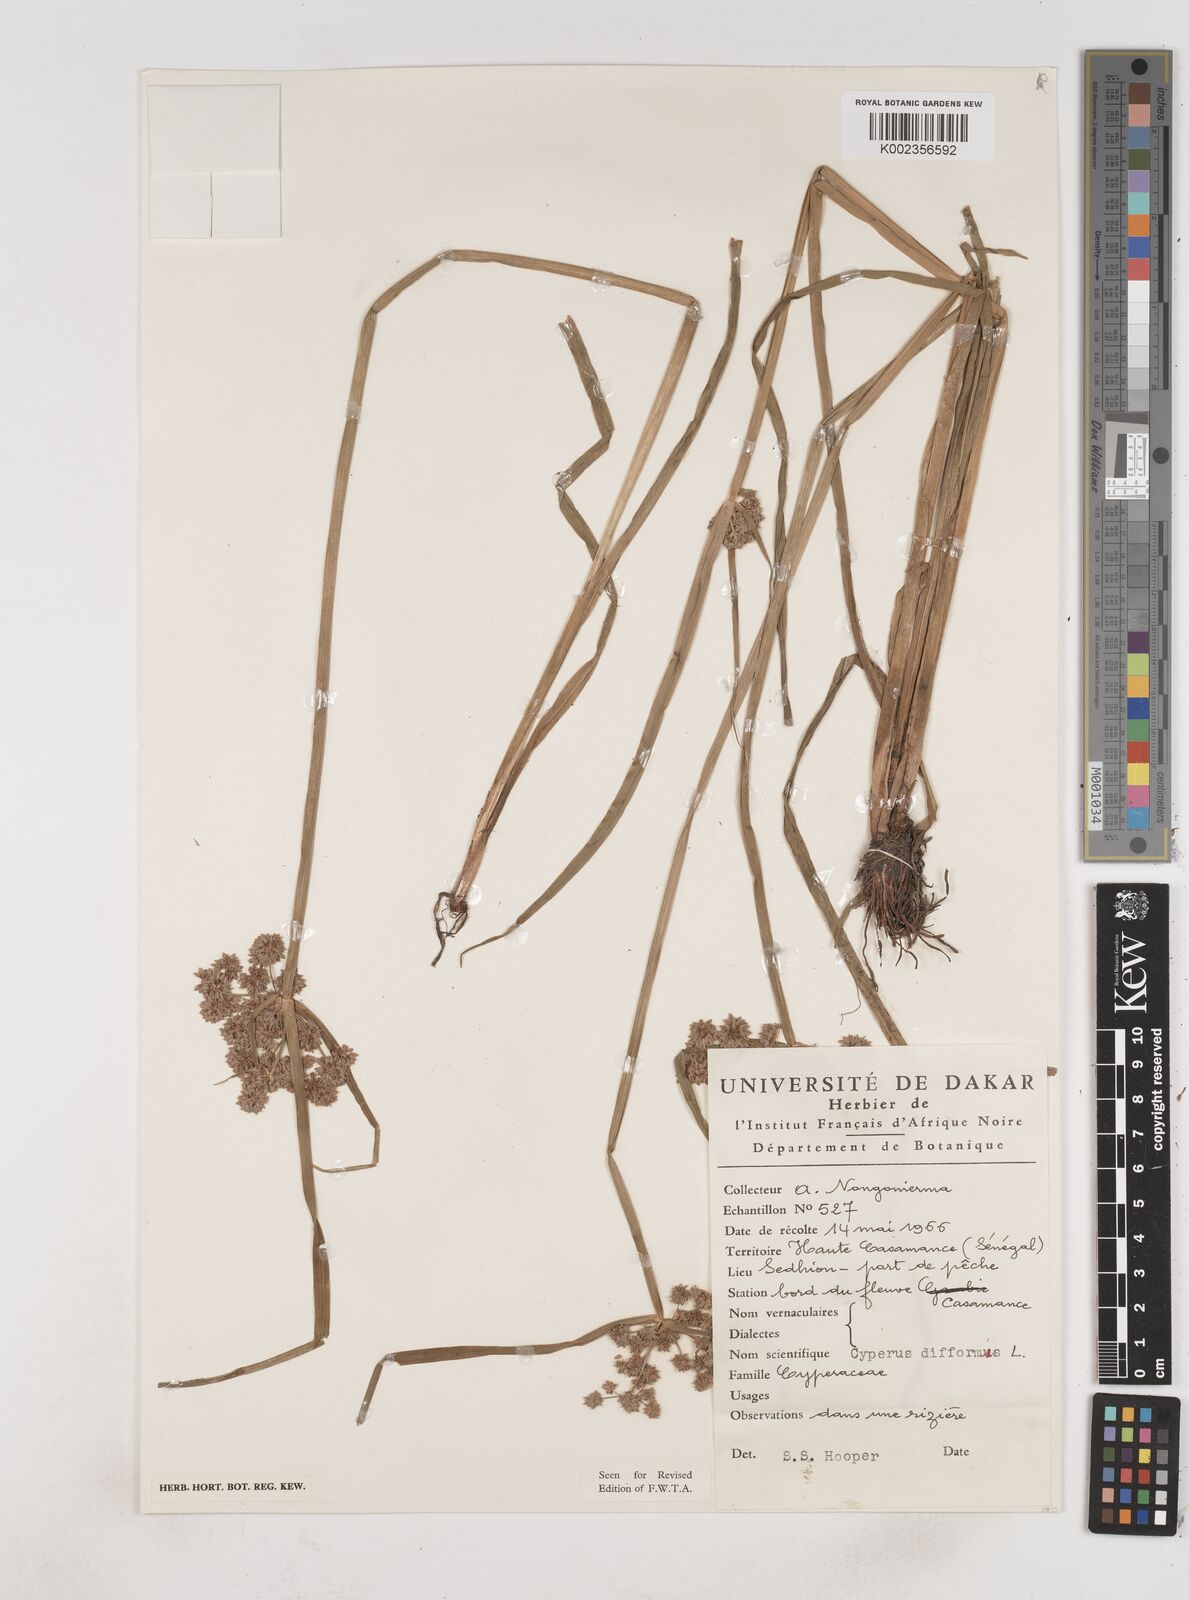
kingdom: Plantae
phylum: Tracheophyta
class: Liliopsida
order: Poales
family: Cyperaceae
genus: Cyperus
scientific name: Cyperus difformis
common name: Variable flatsedge
